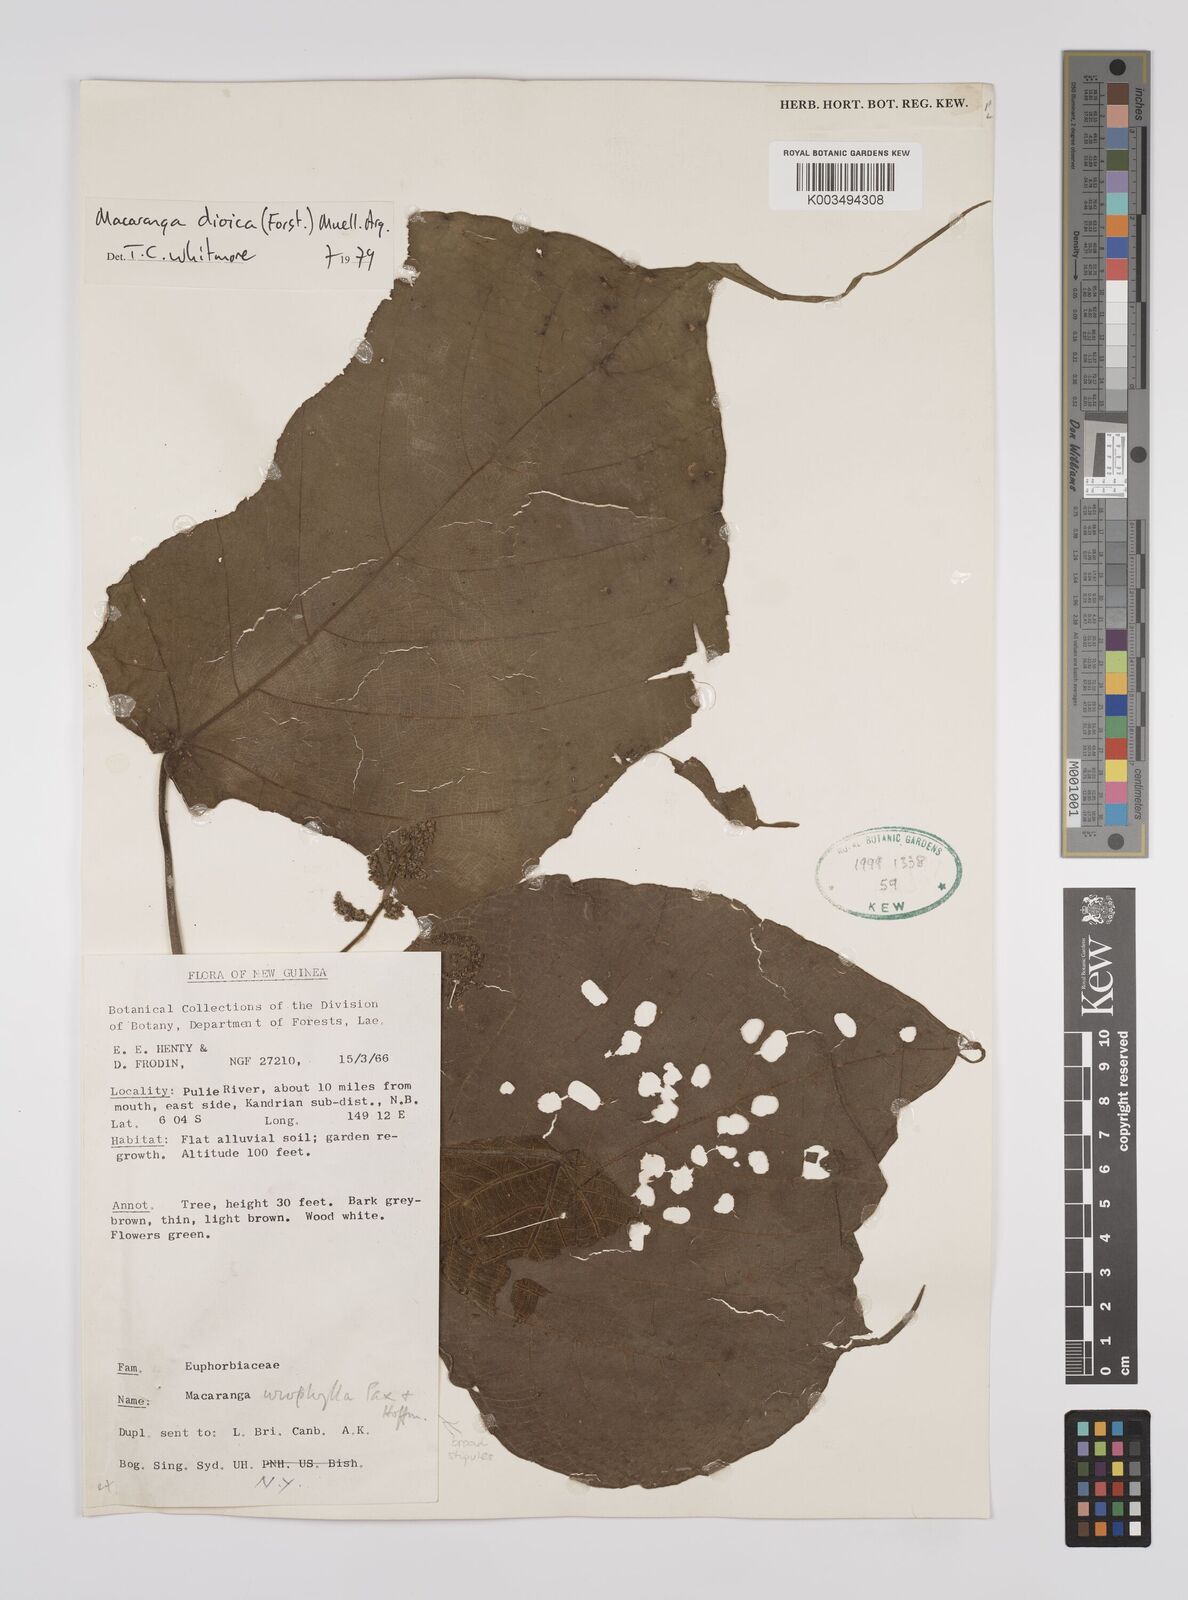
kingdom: Plantae
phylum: Tracheophyta
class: Magnoliopsida
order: Malpighiales
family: Euphorbiaceae
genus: Macaranga
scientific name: Macaranga dioica
